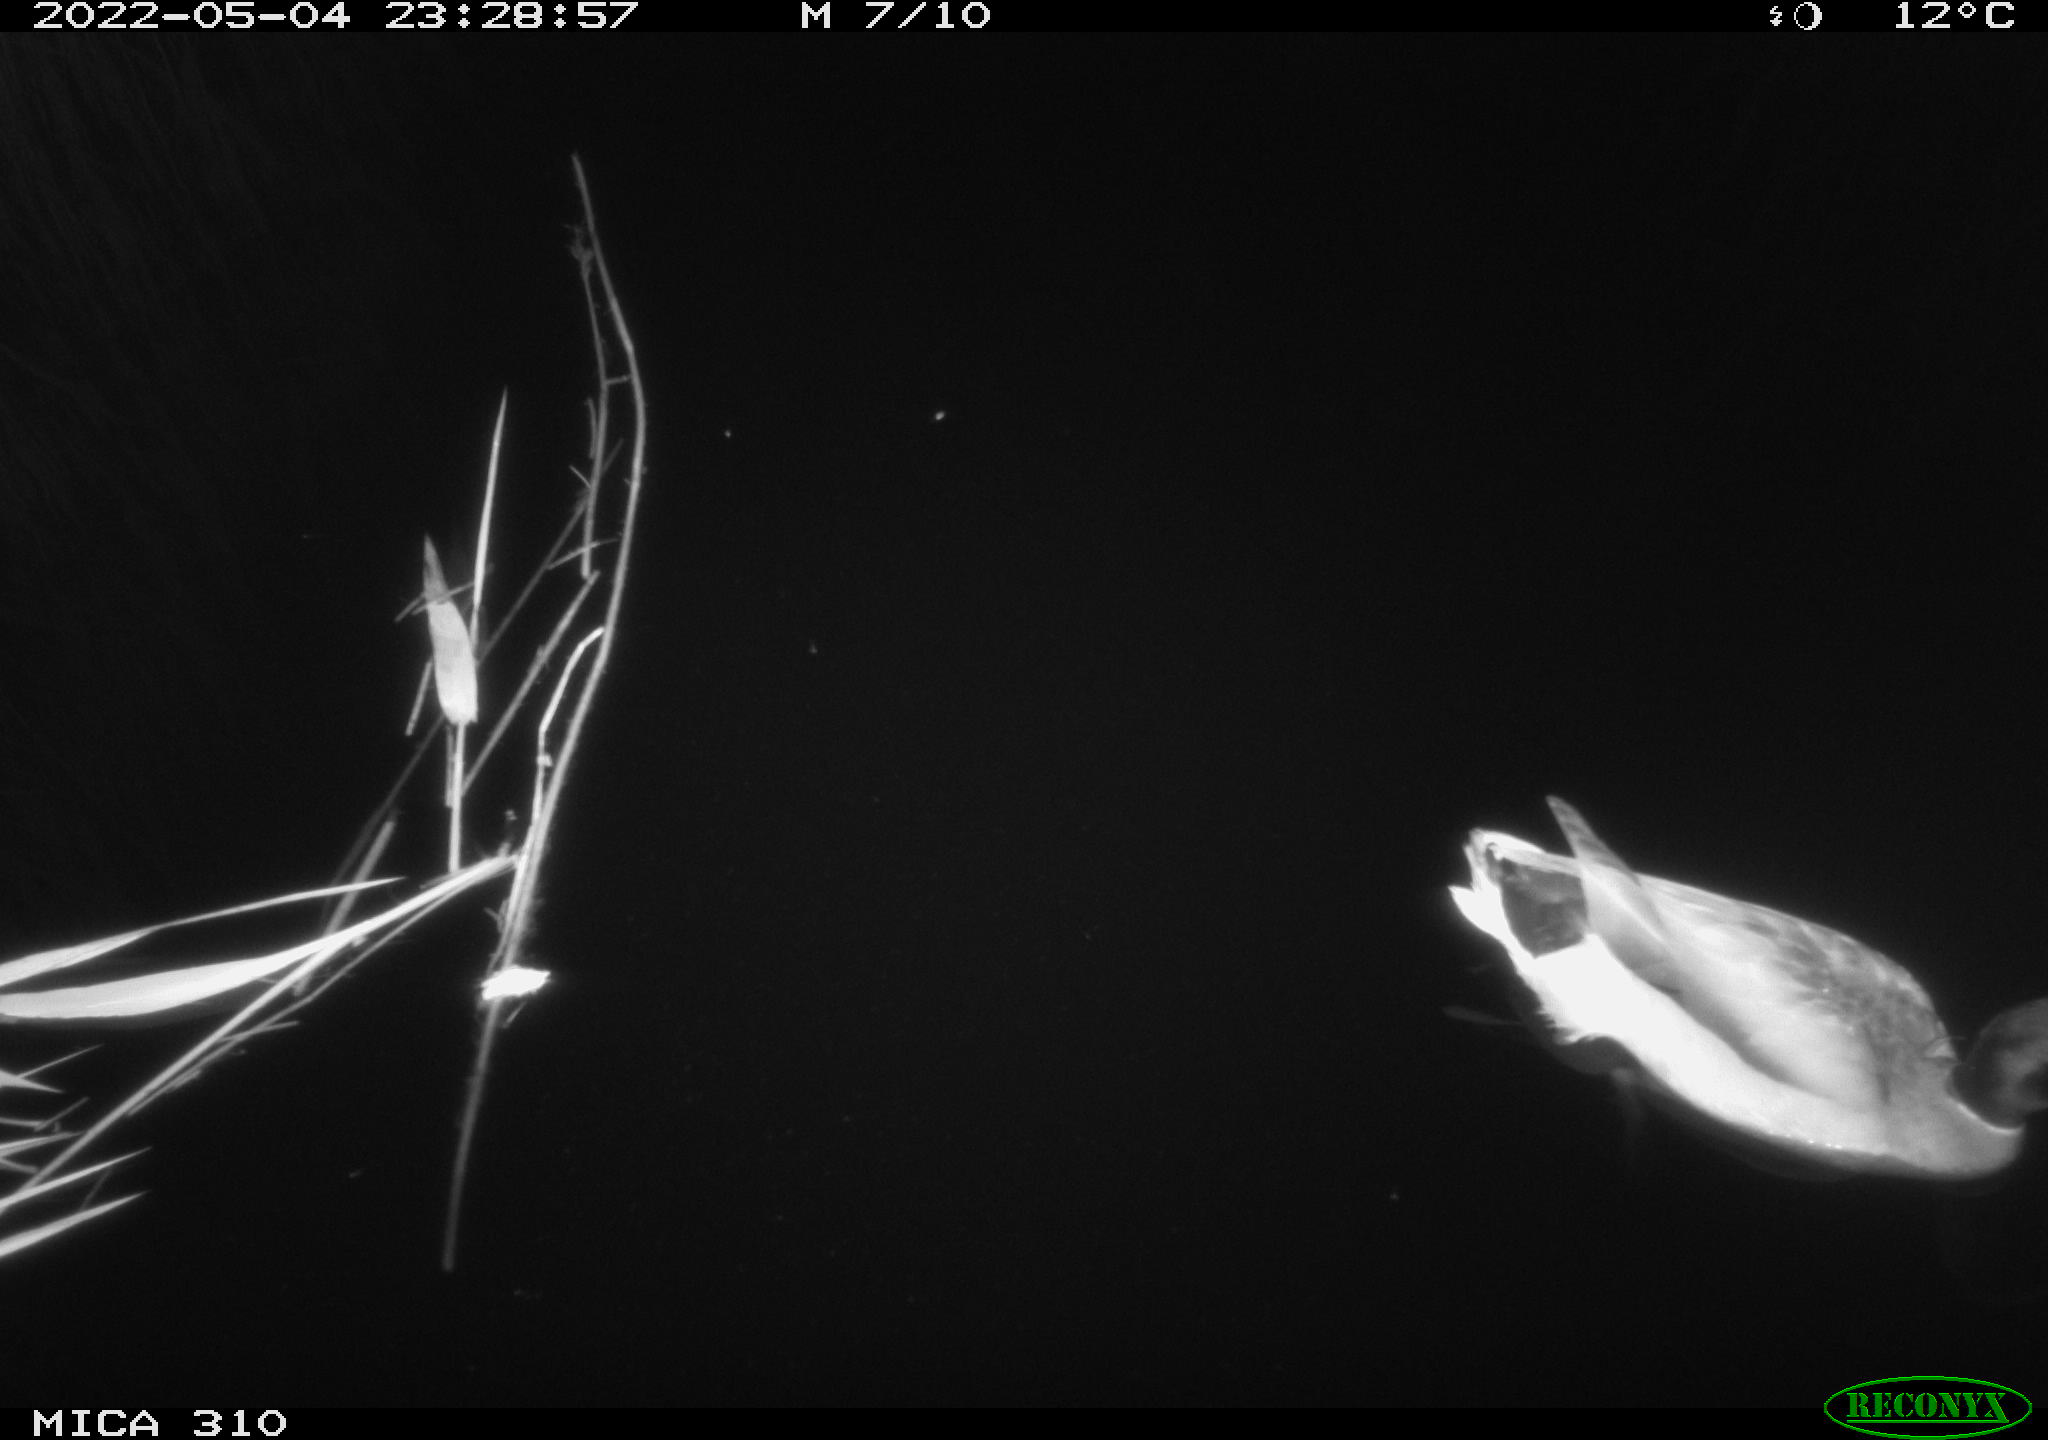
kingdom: Animalia
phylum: Chordata
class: Aves
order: Anseriformes
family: Anatidae
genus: Anas
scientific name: Anas platyrhynchos
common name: Mallard
